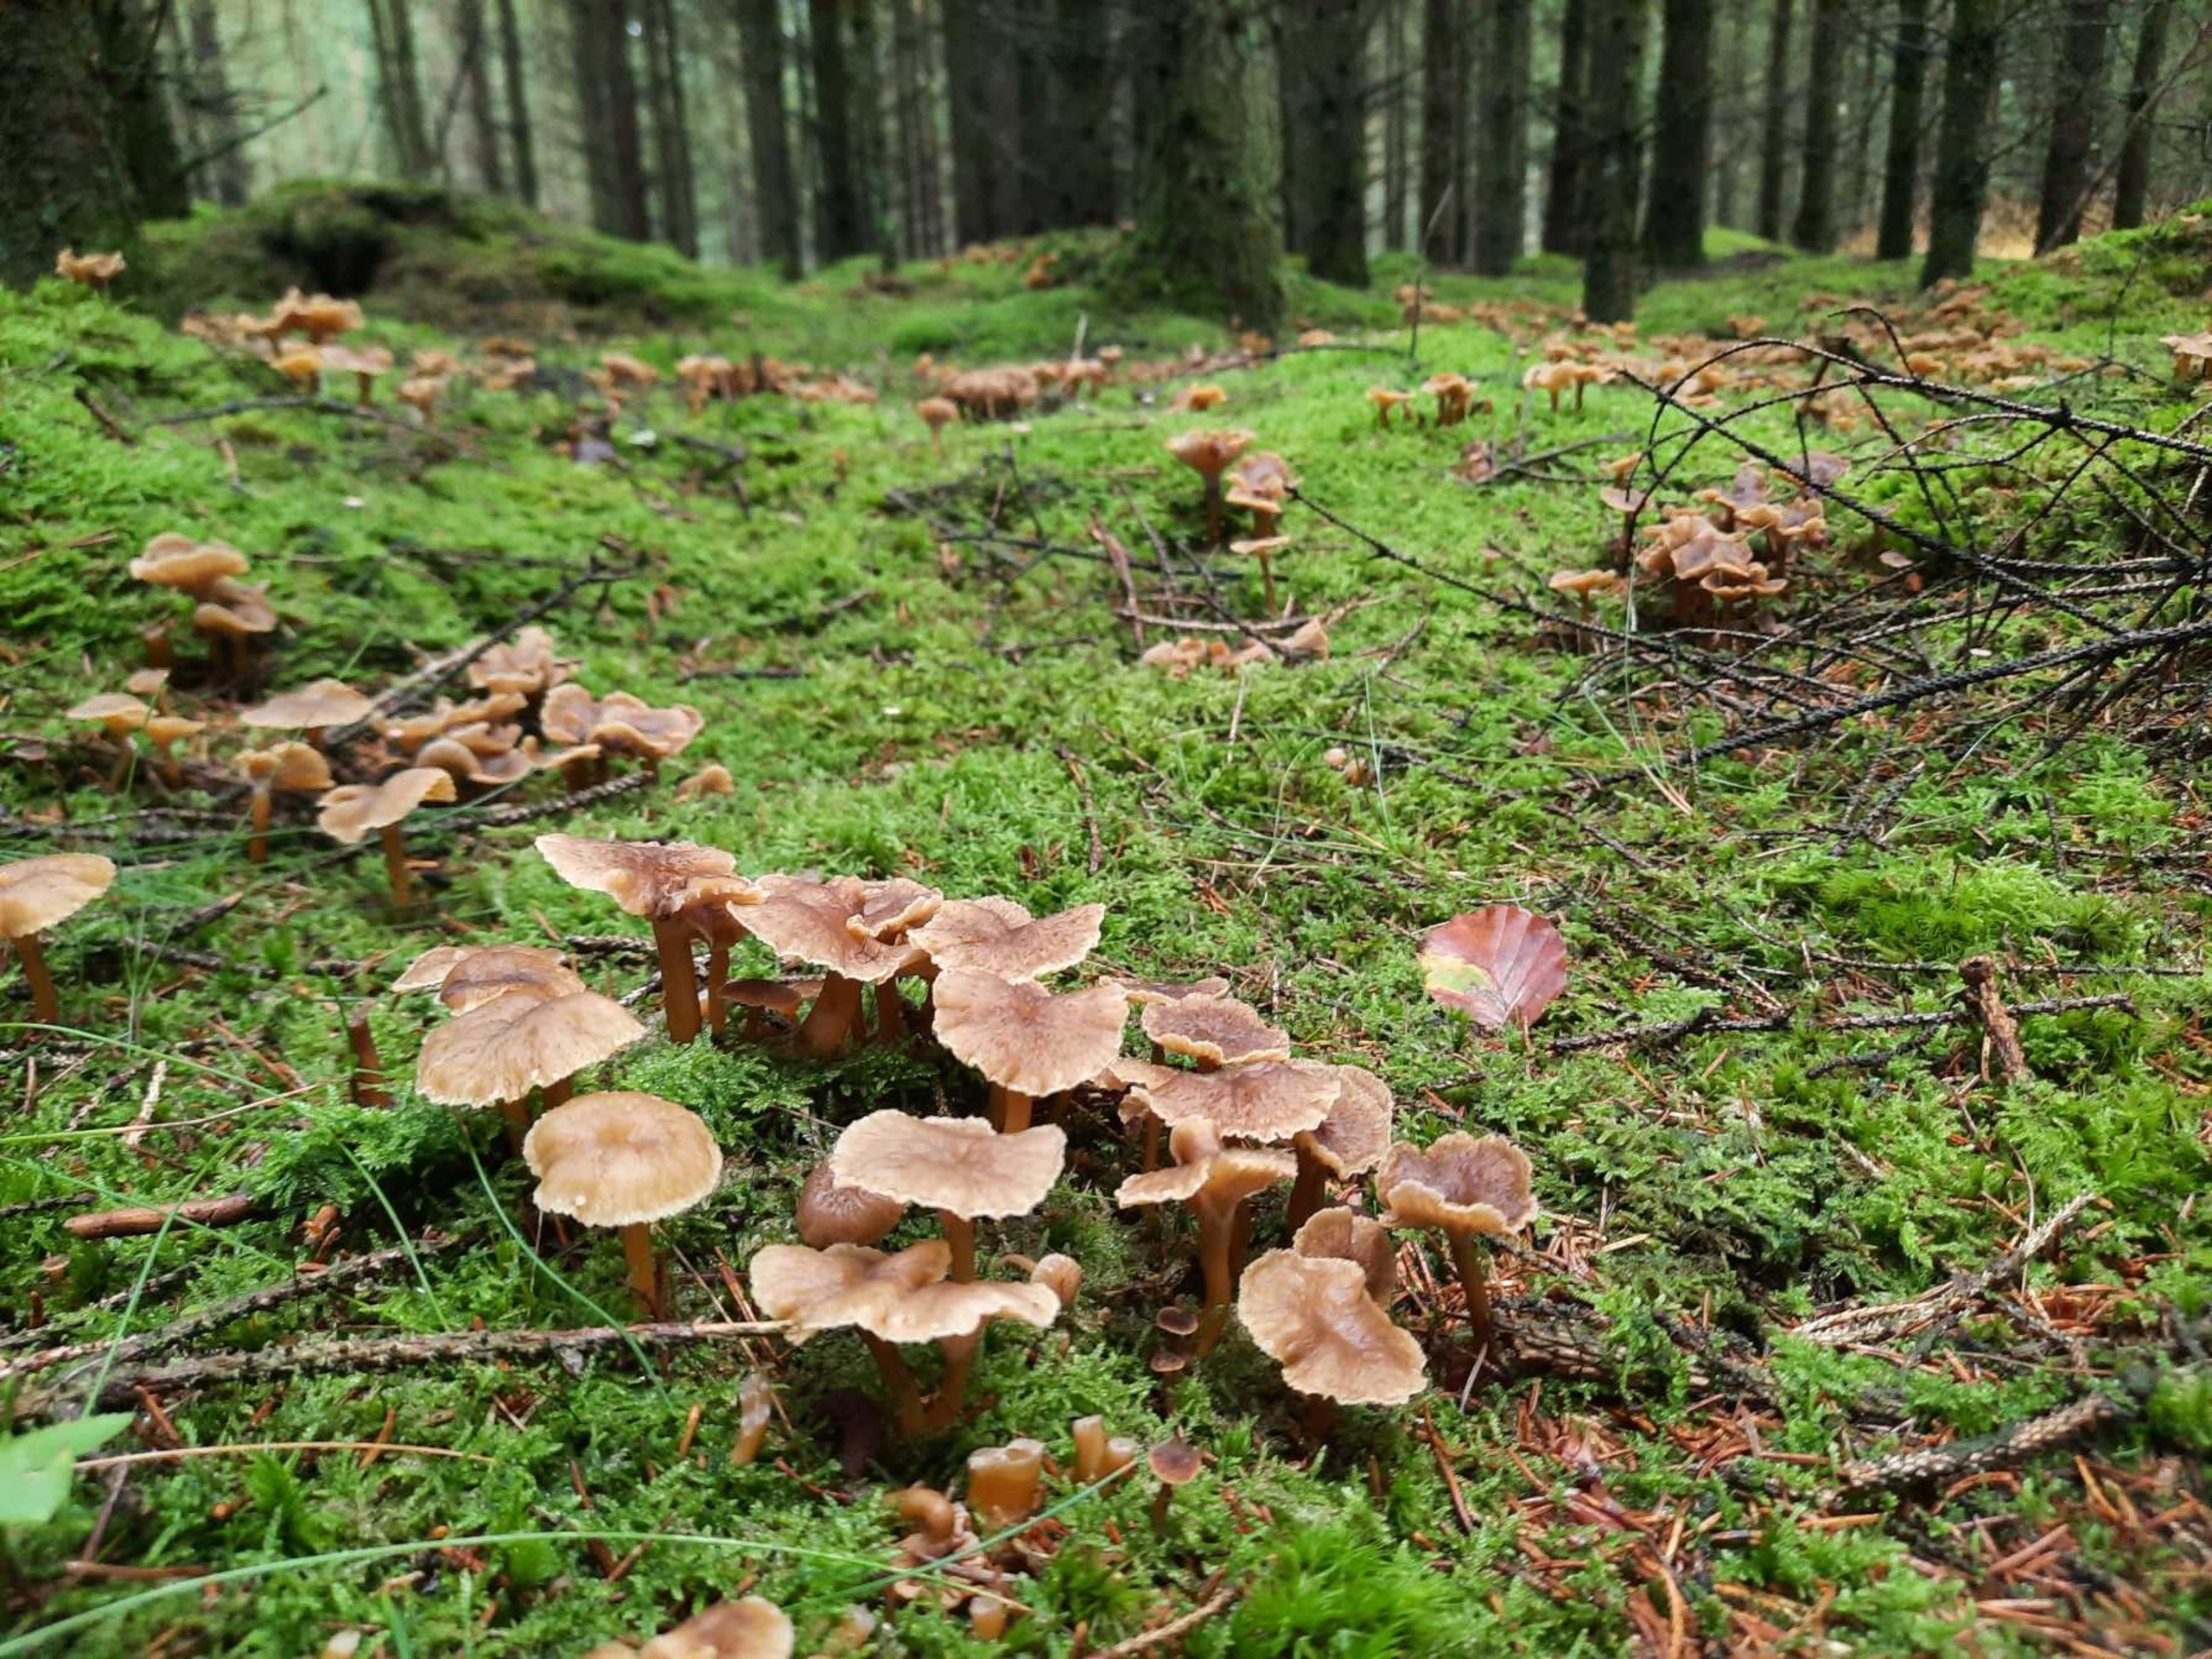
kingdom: Fungi
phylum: Basidiomycota
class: Agaricomycetes
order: Cantharellales
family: Hydnaceae
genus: Craterellus
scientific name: Craterellus tubaeformis
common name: Tragt-kantarel
